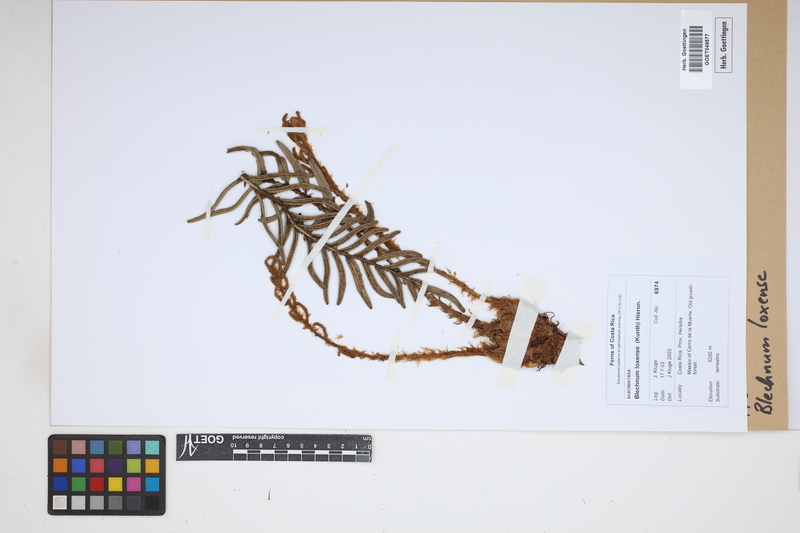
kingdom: Plantae
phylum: Tracheophyta
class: Polypodiopsida
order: Polypodiales
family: Blechnaceae
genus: Parablechnum
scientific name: Parablechnum loxense
